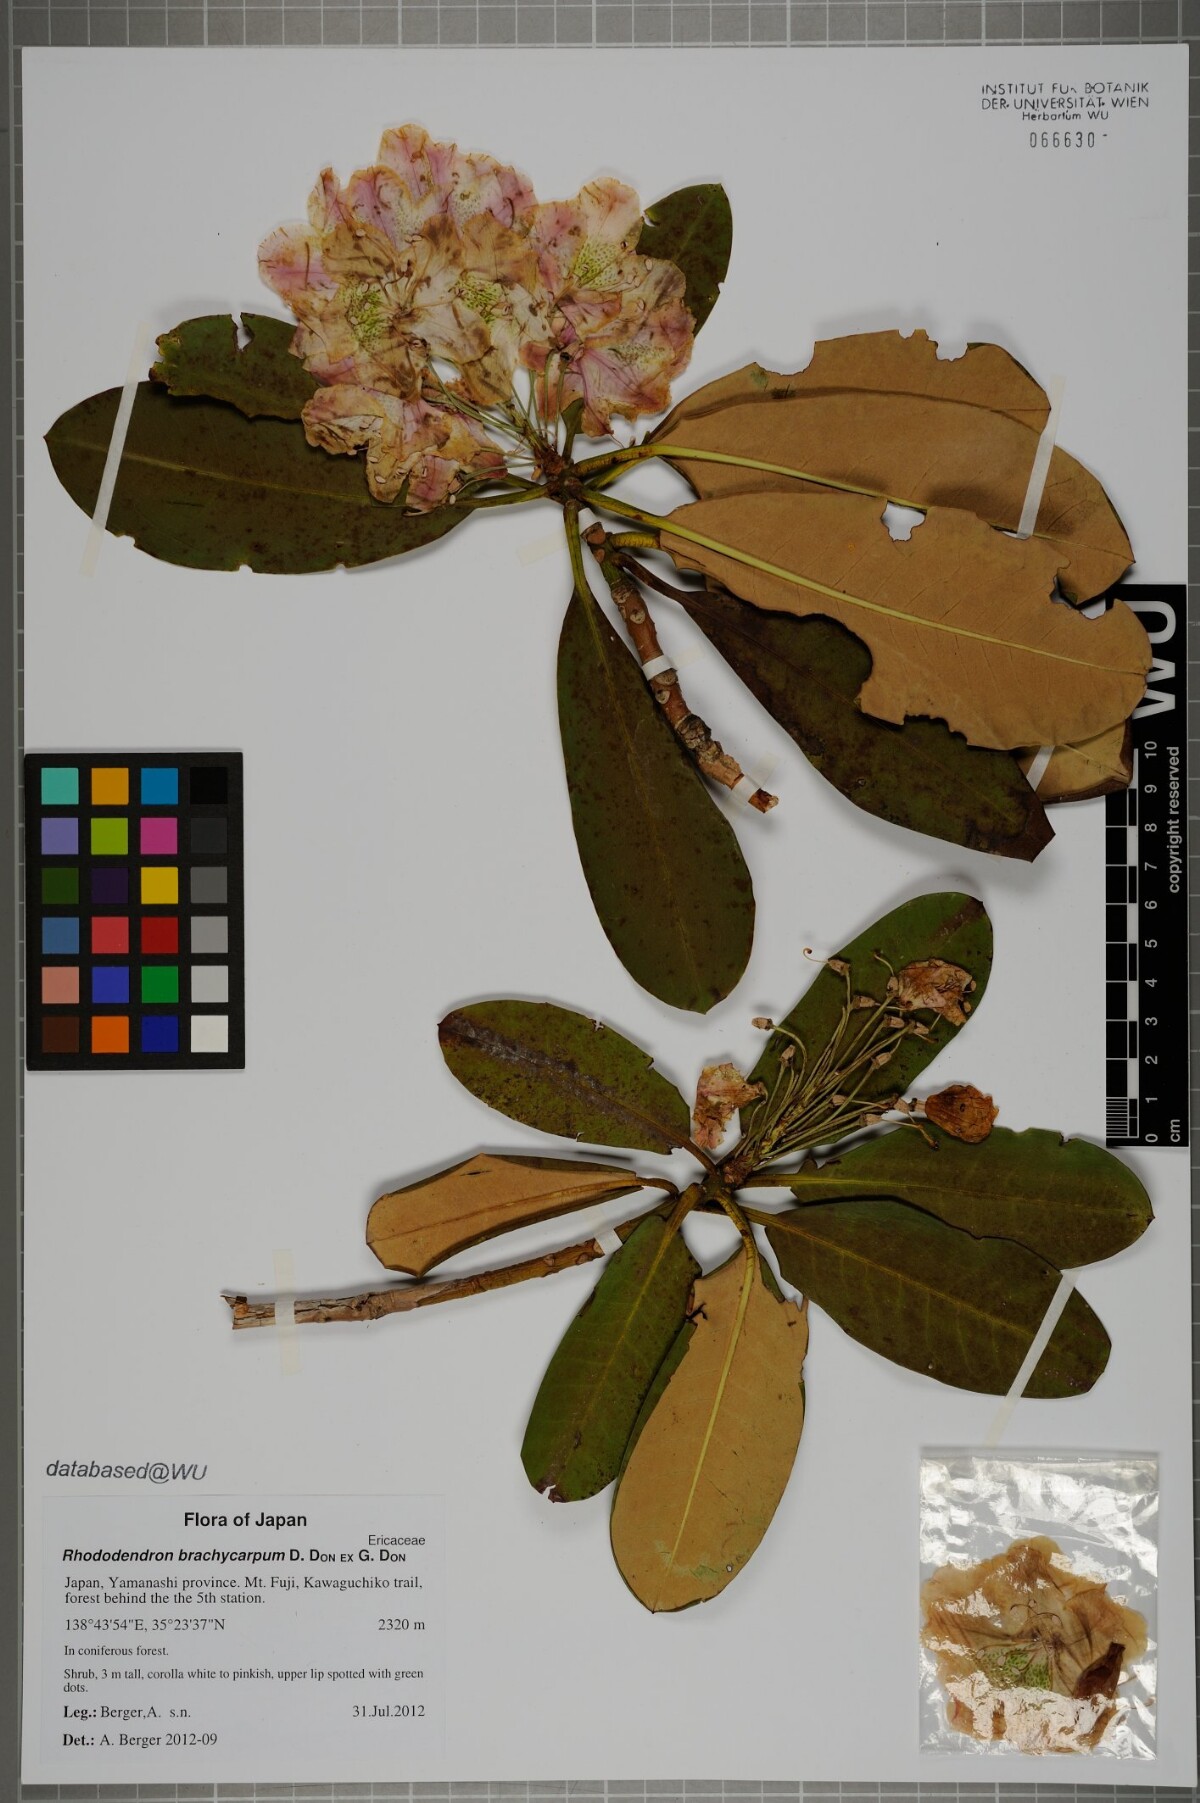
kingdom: Plantae
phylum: Tracheophyta
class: Magnoliopsida
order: Ericales
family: Ericaceae
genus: Rhododendron
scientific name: Rhododendron brachycarpum
